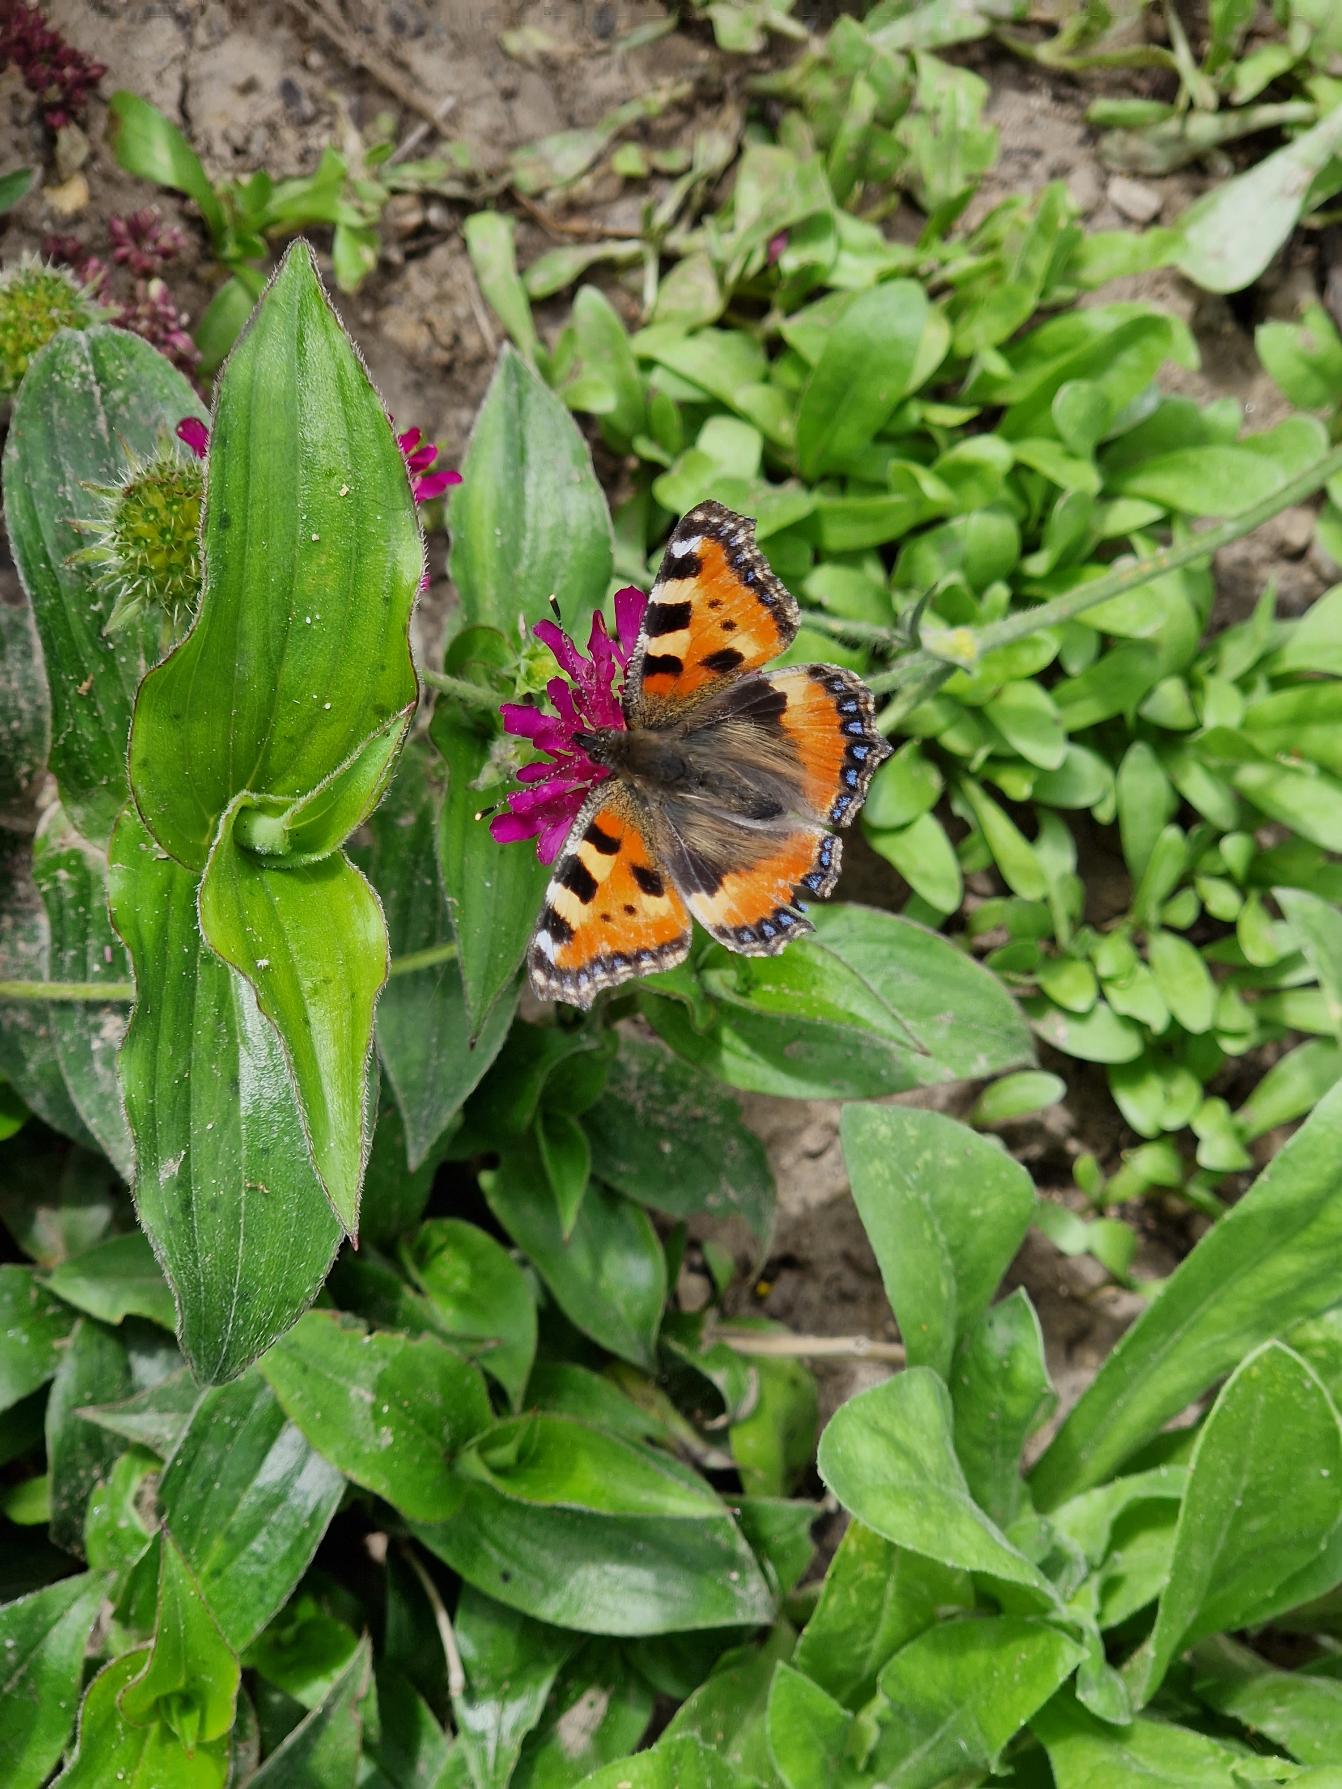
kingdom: Animalia
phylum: Arthropoda
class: Insecta
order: Lepidoptera
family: Nymphalidae
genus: Aglais
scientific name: Aglais urticae
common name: Nældens takvinge
